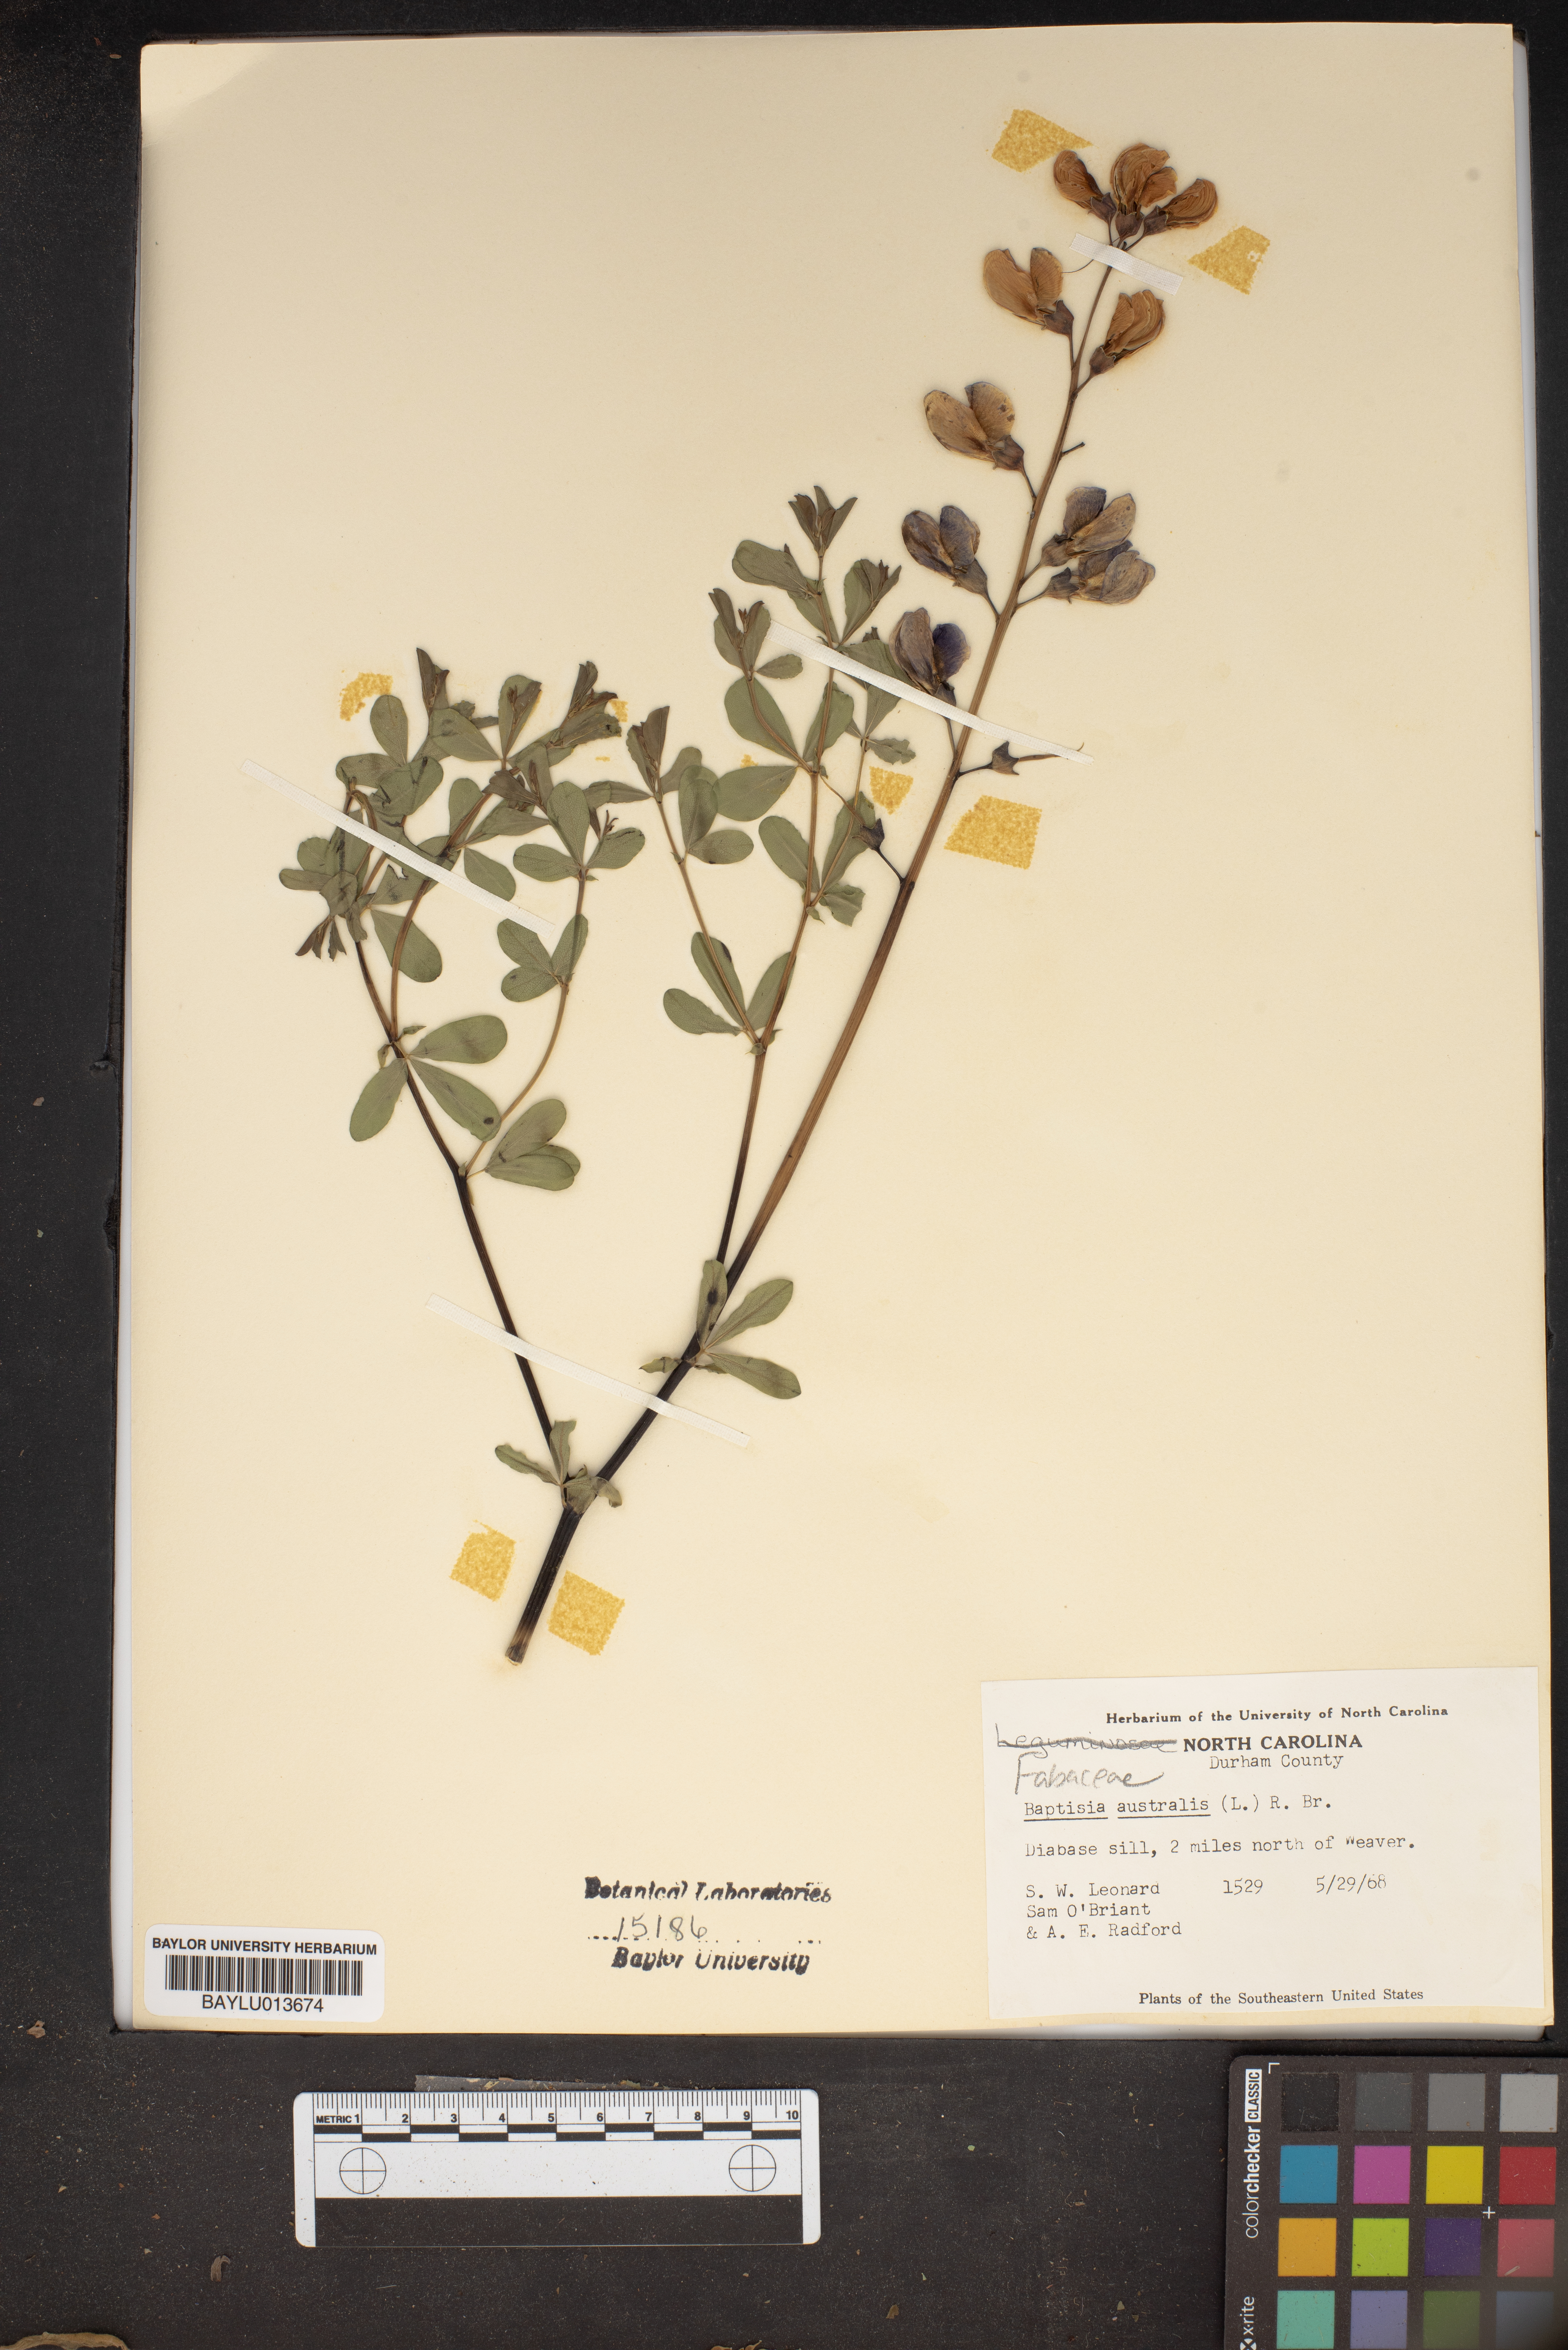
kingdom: Plantae
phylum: Tracheophyta
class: Magnoliopsida
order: Fabales
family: Fabaceae
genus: Baptisia
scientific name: Baptisia australis
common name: Blue false indigo
